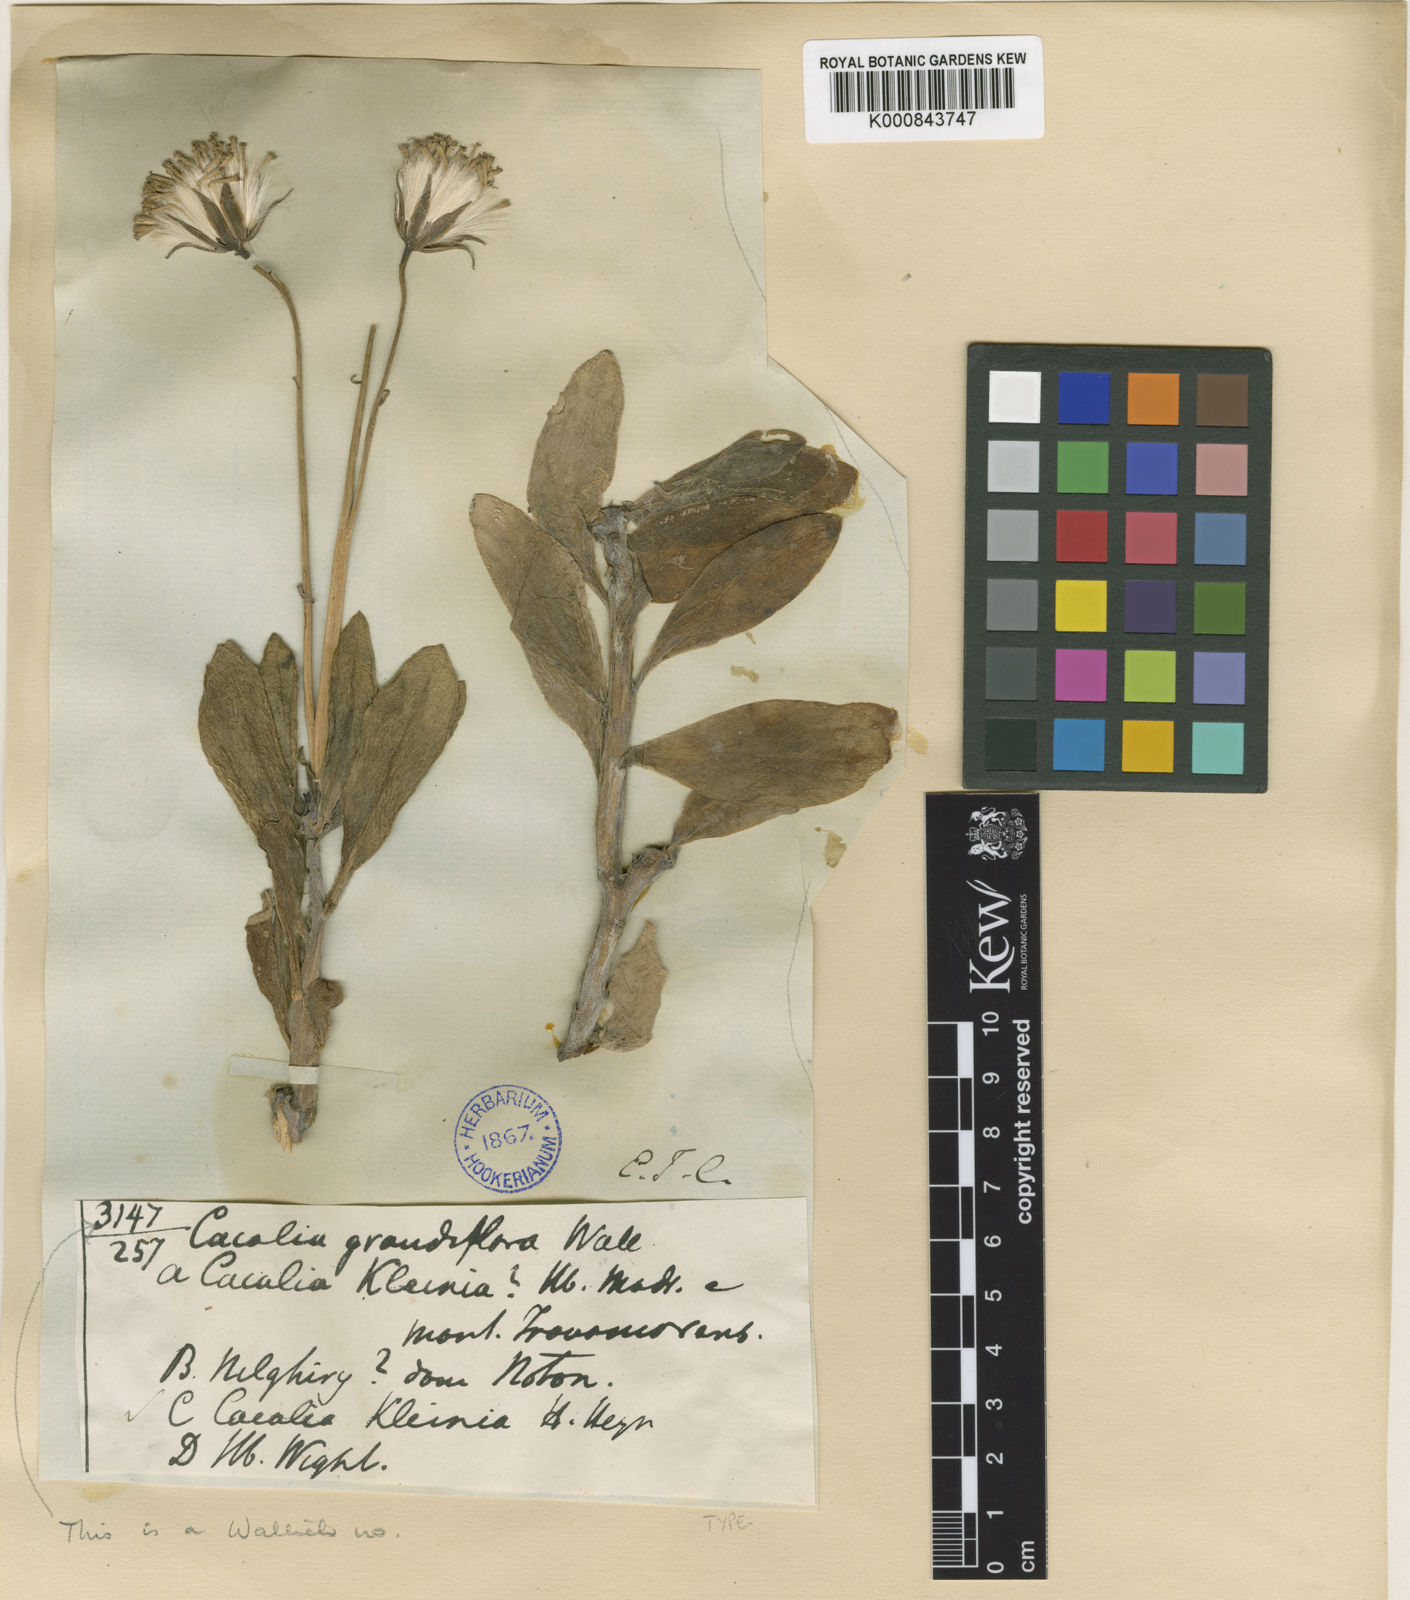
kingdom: Plantae
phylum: Tracheophyta
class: Magnoliopsida
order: Asterales
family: Asteraceae
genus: Kleinia
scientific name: Kleinia grandiflora
